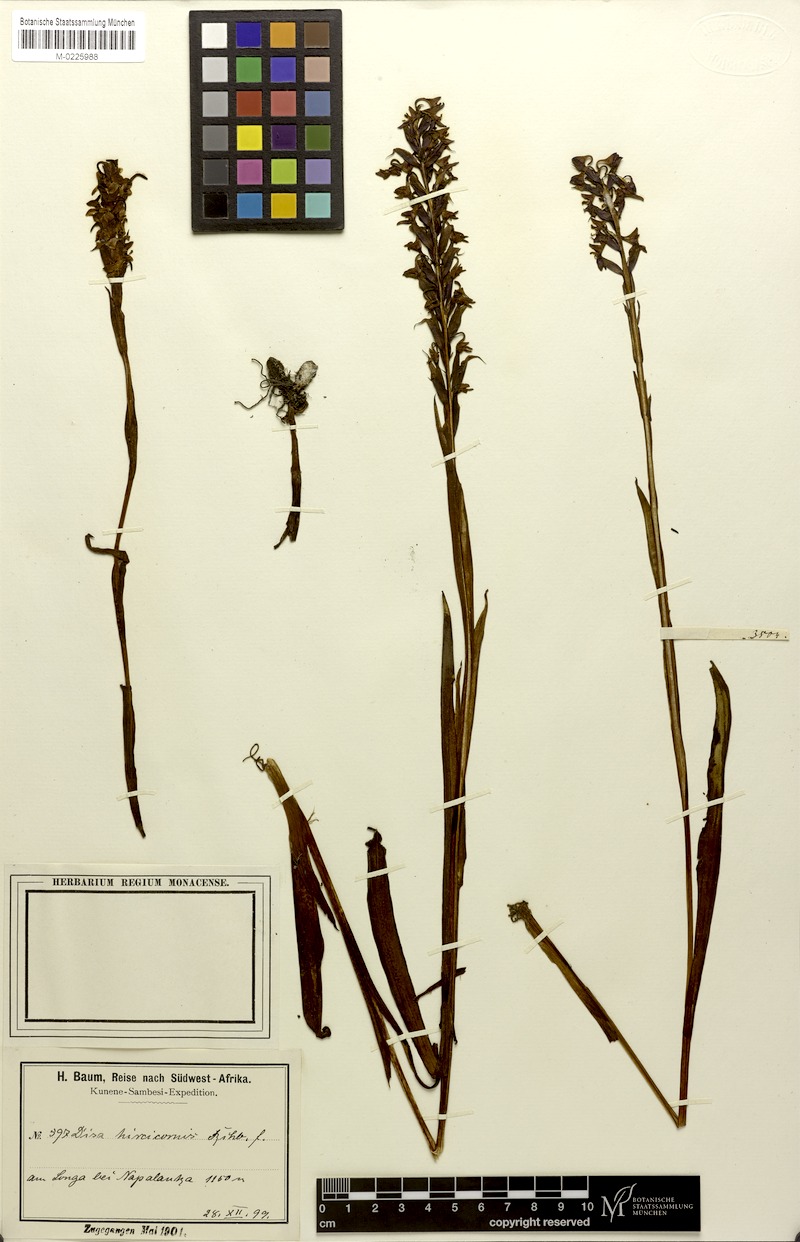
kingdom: Plantae
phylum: Tracheophyta
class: Liliopsida
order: Asparagales
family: Orchidaceae
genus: Disa
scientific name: Disa hircicornis
